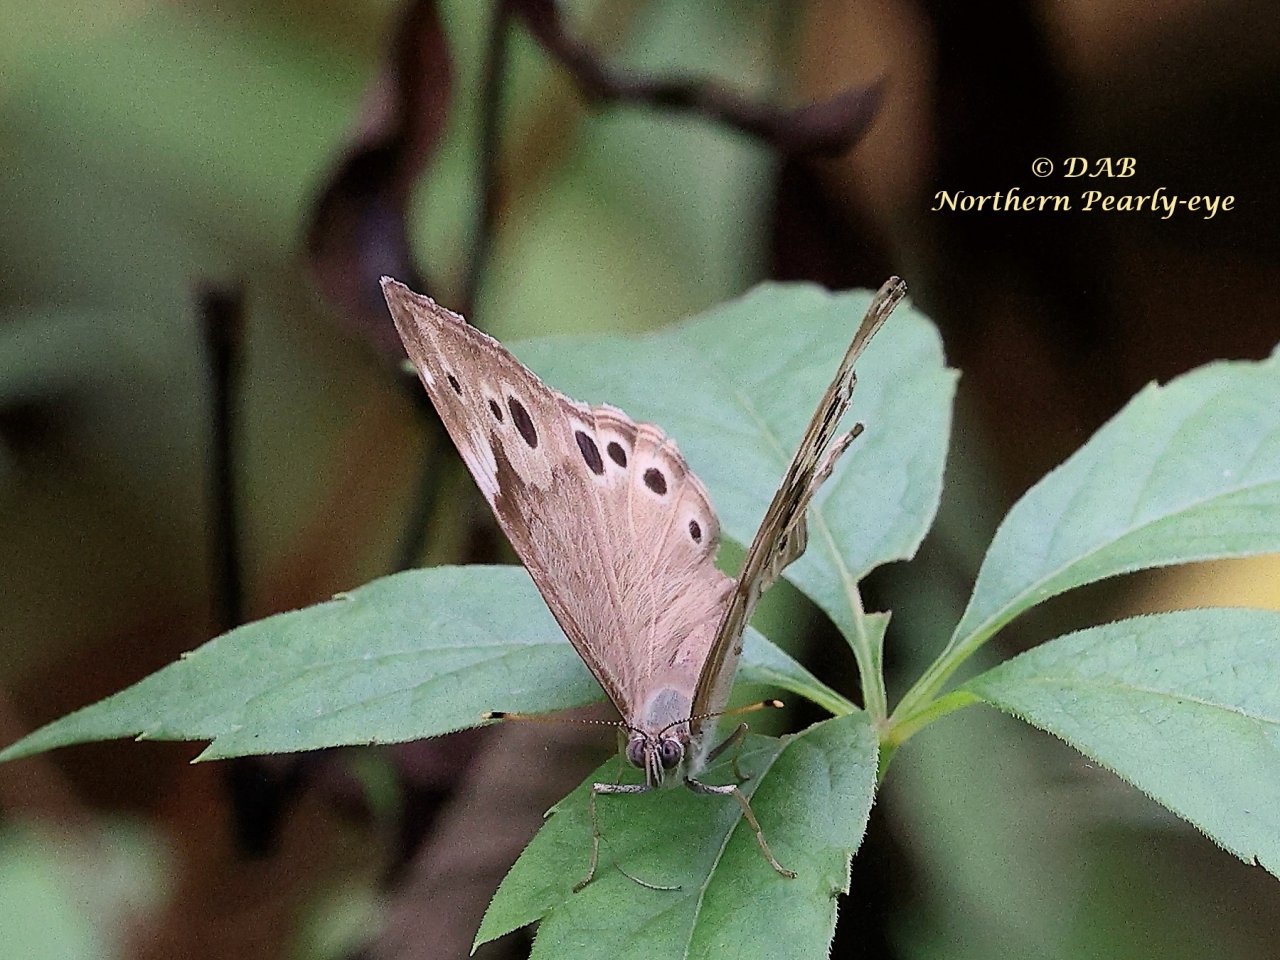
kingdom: Animalia
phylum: Arthropoda
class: Insecta
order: Lepidoptera
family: Nymphalidae
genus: Lethe
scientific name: Lethe anthedon
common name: Northern Pearly-Eye
